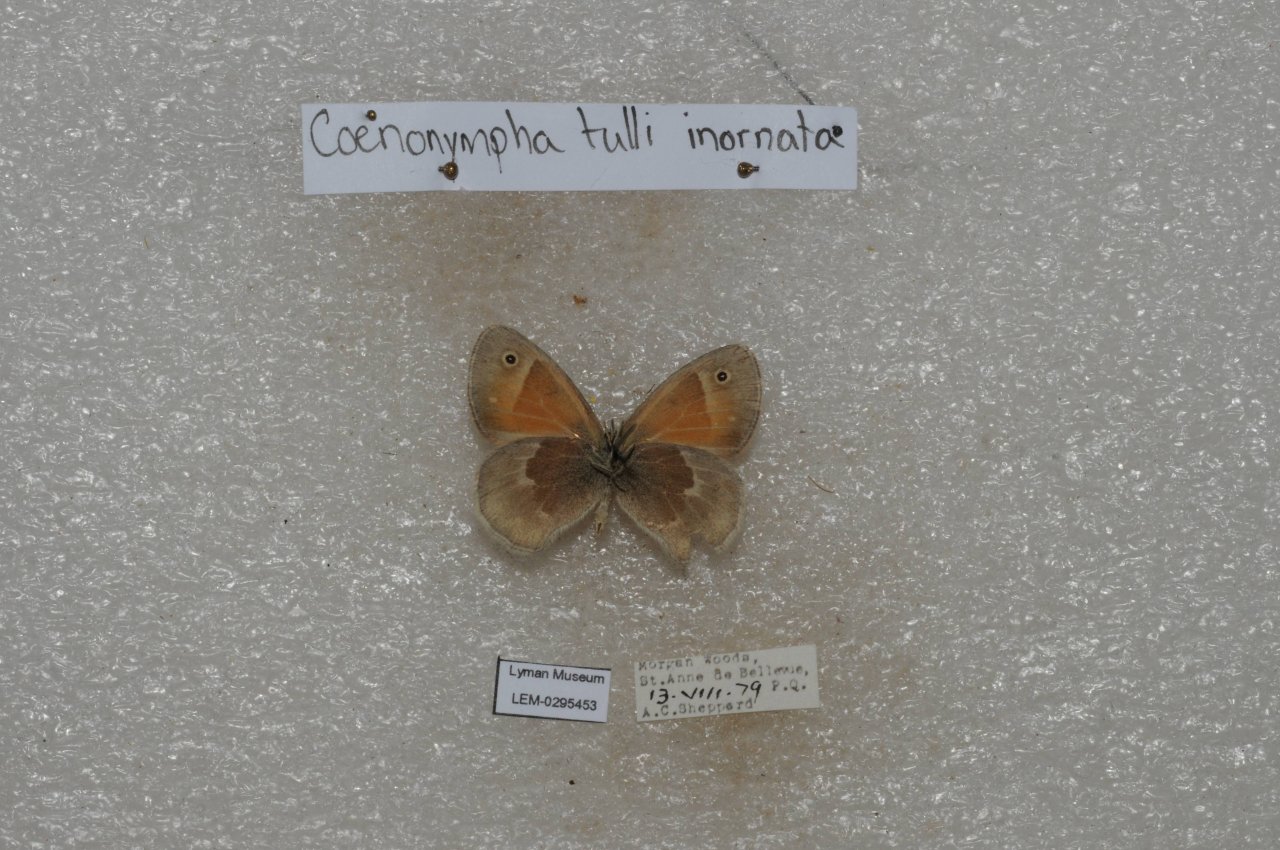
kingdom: Animalia
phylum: Arthropoda
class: Insecta
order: Lepidoptera
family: Nymphalidae
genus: Coenonympha
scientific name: Coenonympha tullia
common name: Large Heath
